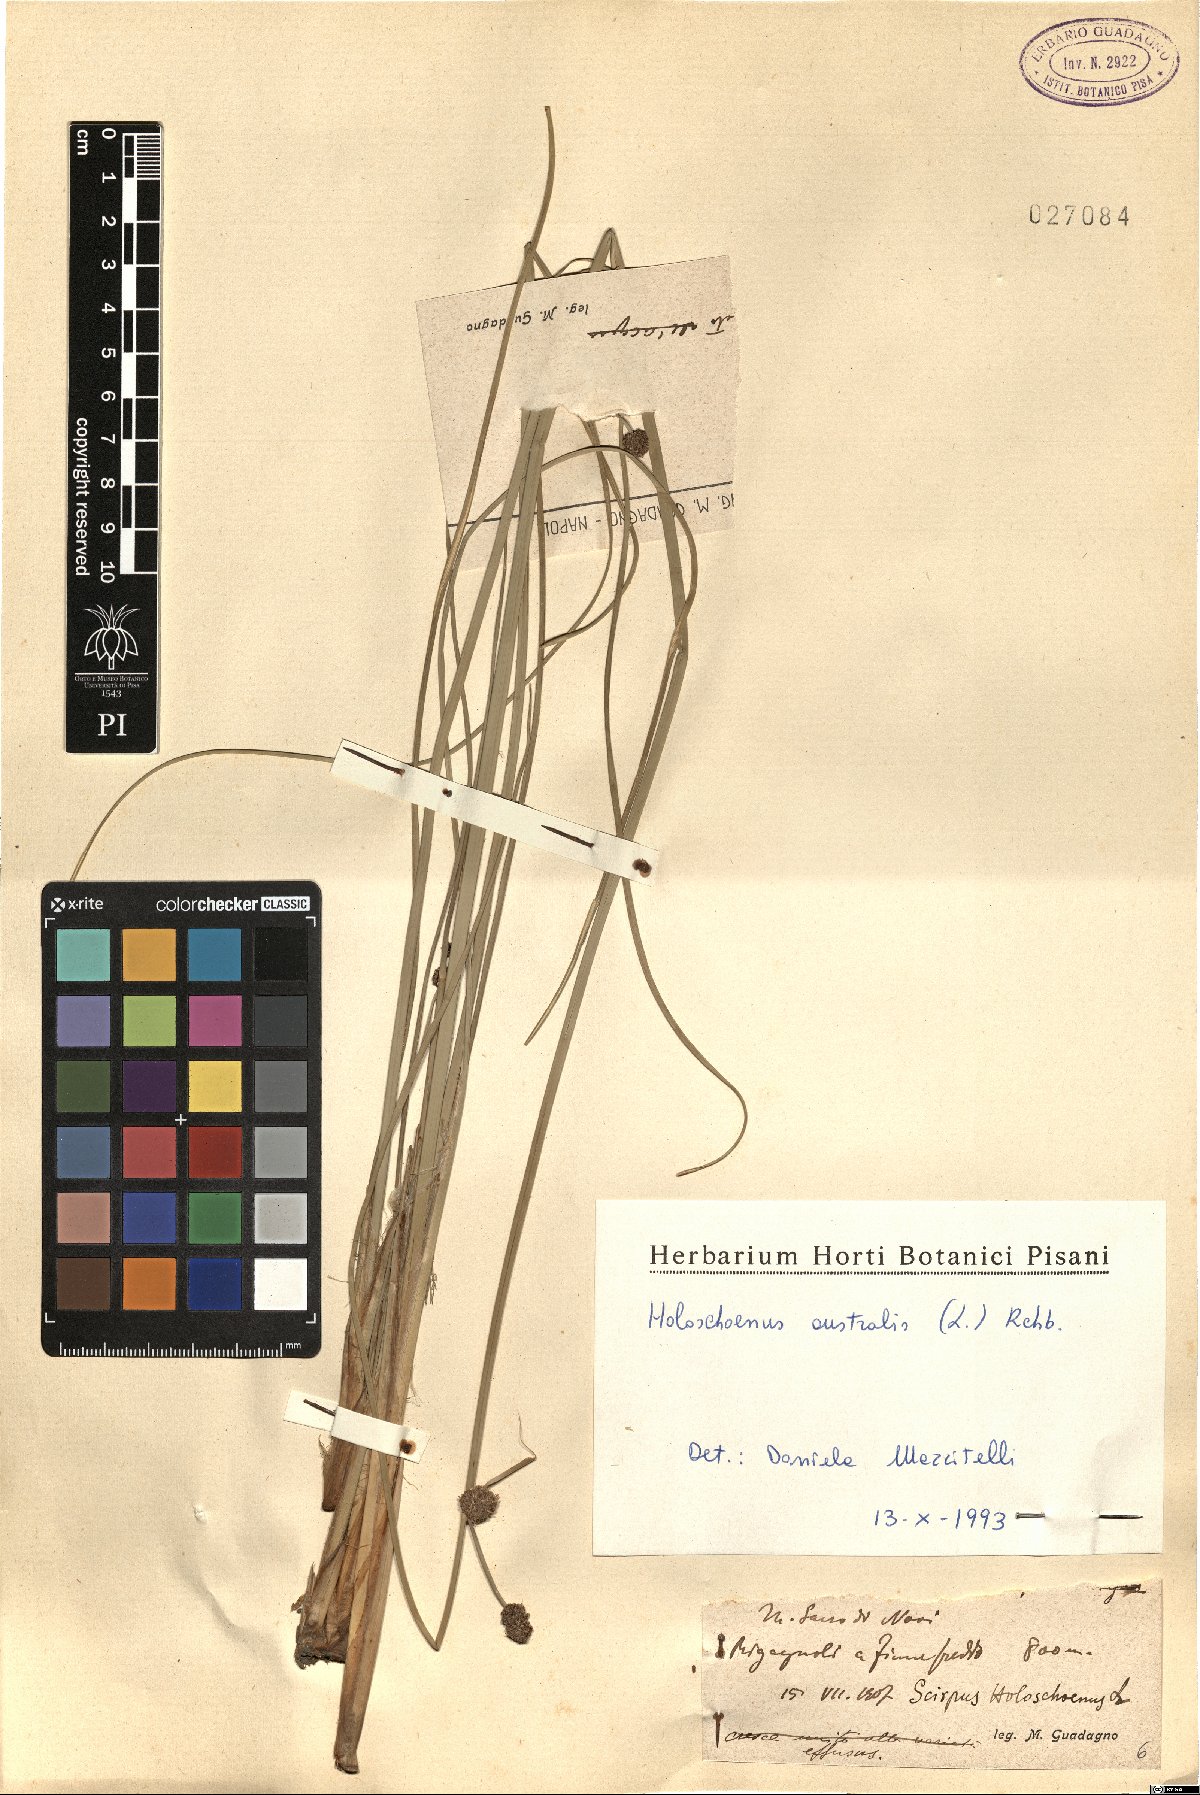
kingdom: Plantae
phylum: Tracheophyta
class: Liliopsida
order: Poales
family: Cyperaceae
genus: Scirpoides
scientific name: Scirpoides holoschoenus
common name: Round-headed club-rush
